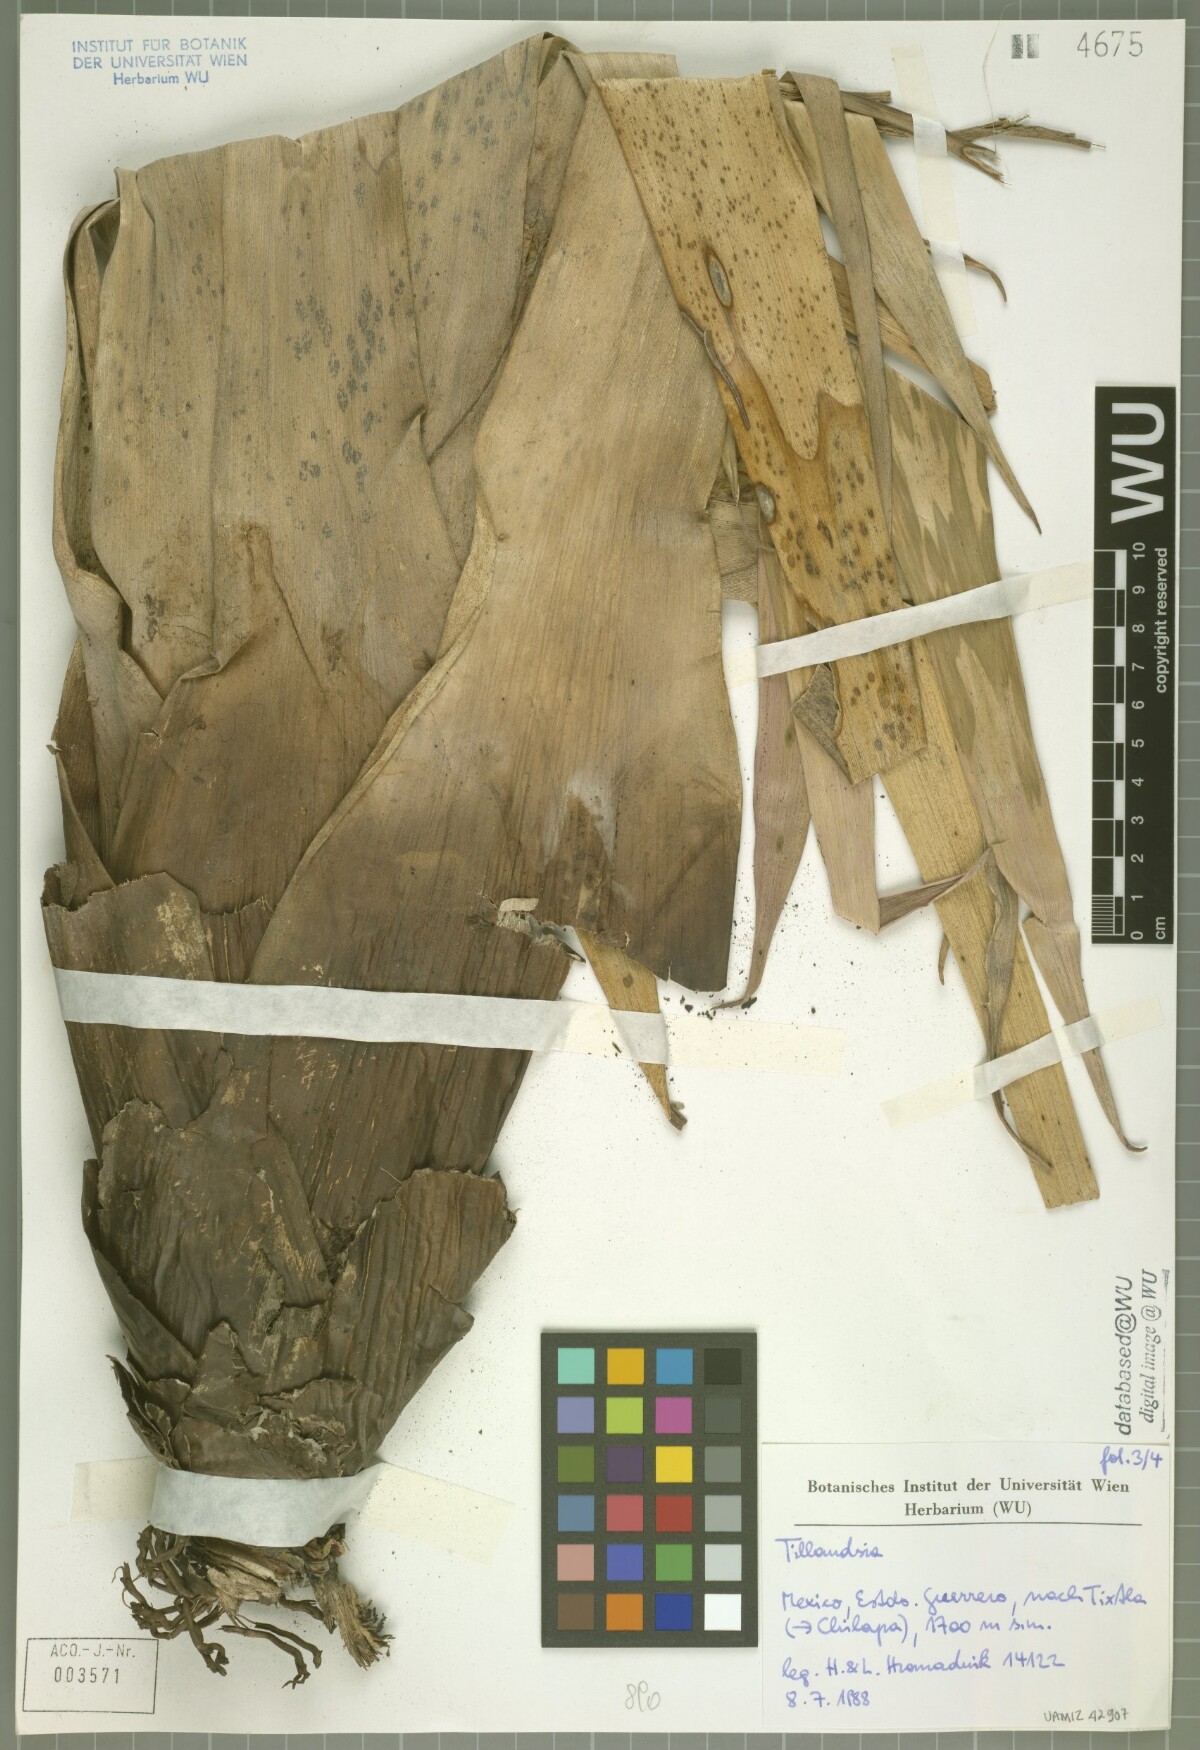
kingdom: Plantae
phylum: Tracheophyta
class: Liliopsida
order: Poales
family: Bromeliaceae
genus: Tillandsia
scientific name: Tillandsia mirabilis
